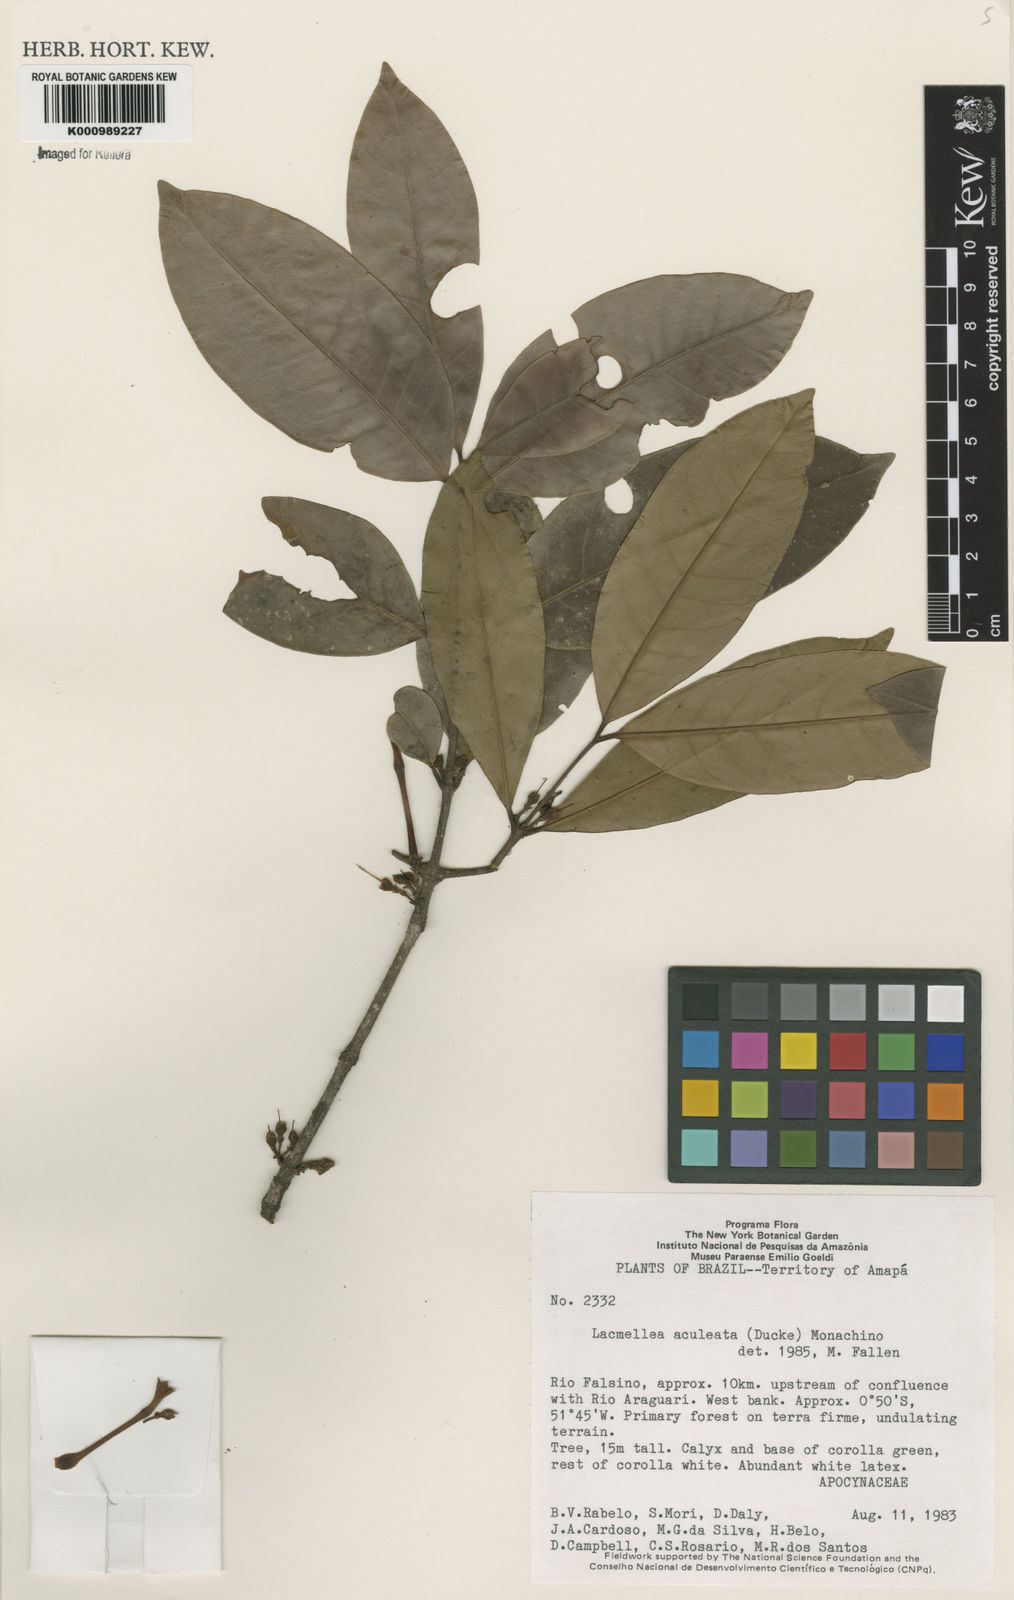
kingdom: Plantae
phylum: Tracheophyta
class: Magnoliopsida
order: Gentianales
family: Apocynaceae
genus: Lacmellea
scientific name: Lacmellea aculeata
